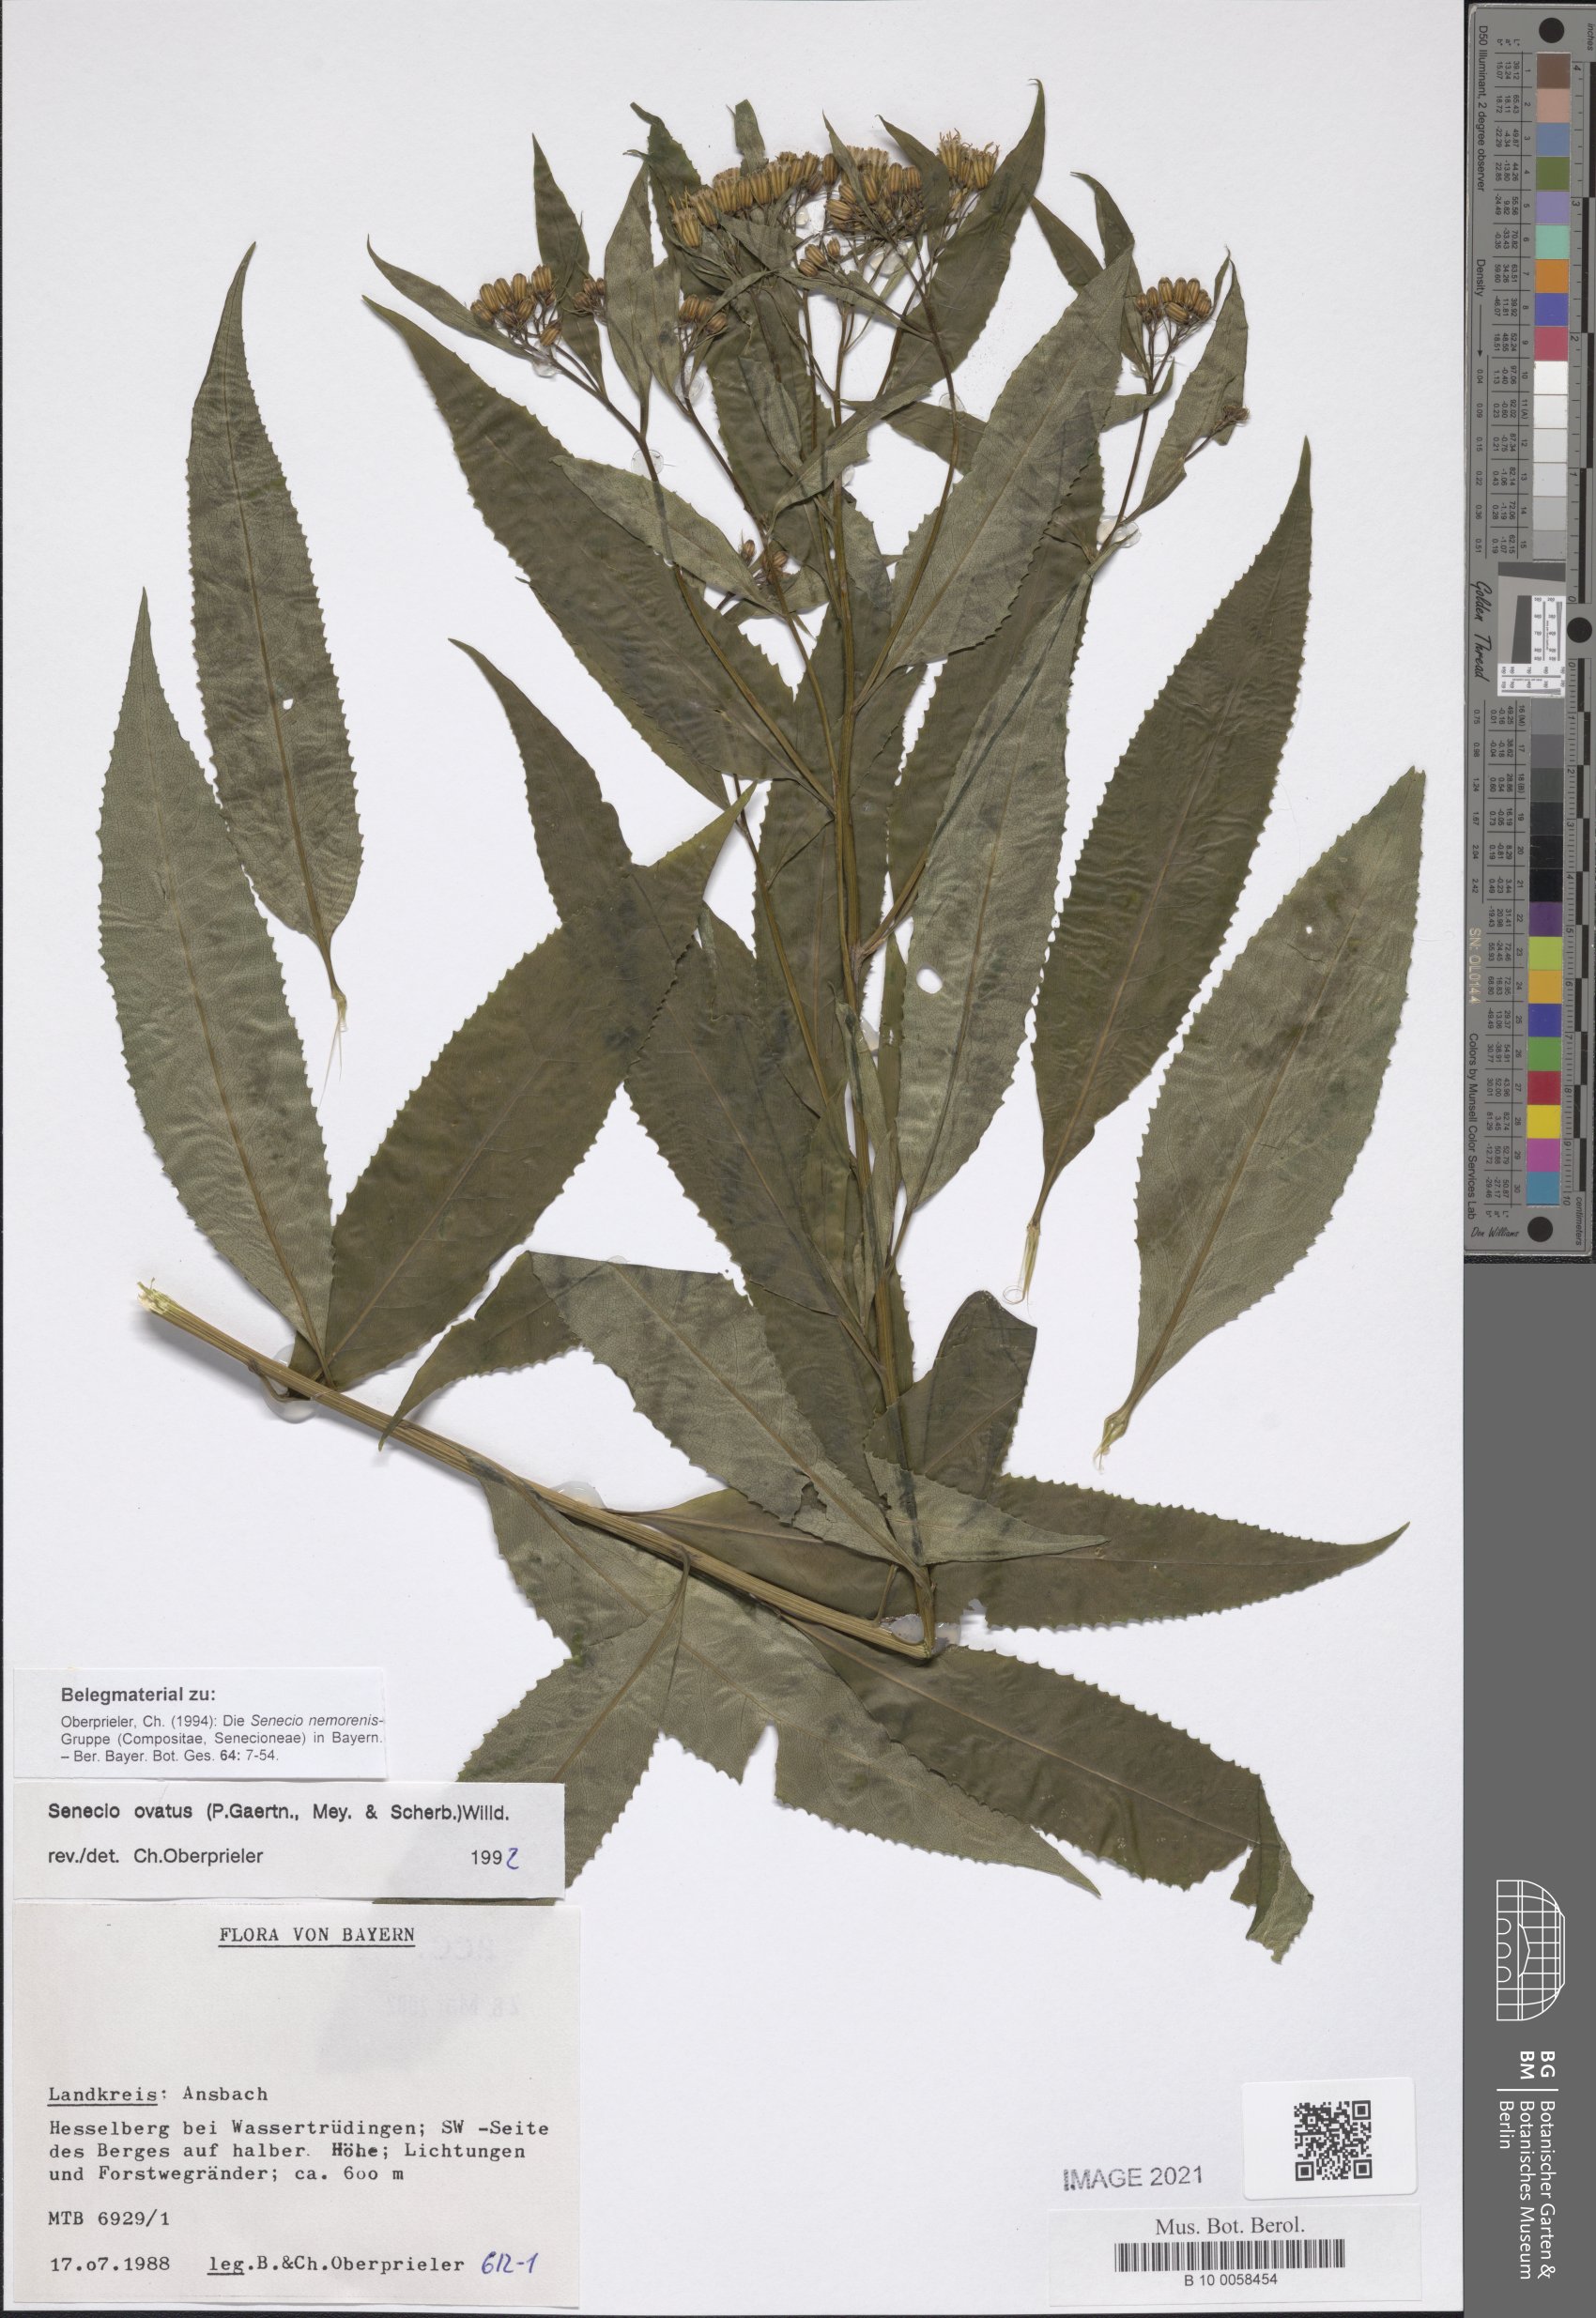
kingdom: Plantae
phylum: Tracheophyta
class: Magnoliopsida
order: Asterales
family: Asteraceae
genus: Senecio
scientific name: Senecio ovatus
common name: Wood ragwort
